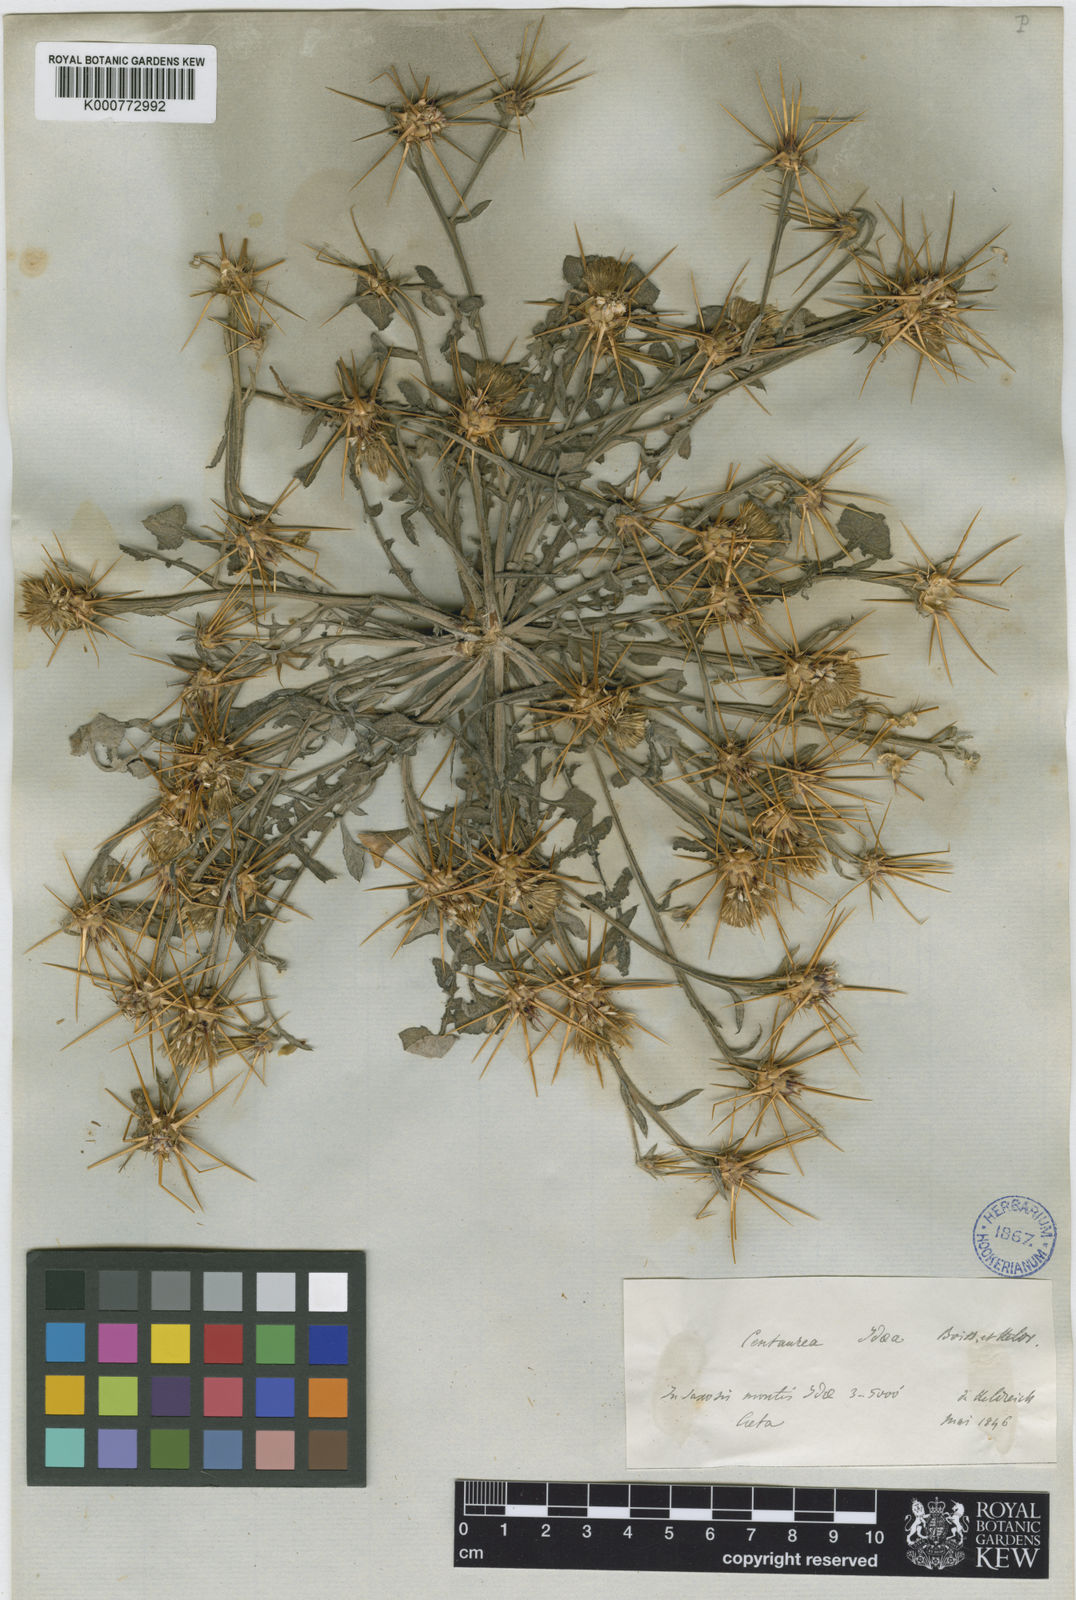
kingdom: Plantae
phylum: Tracheophyta
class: Magnoliopsida
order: Asterales
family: Asteraceae
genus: Centaurea
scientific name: Centaurea idaea
